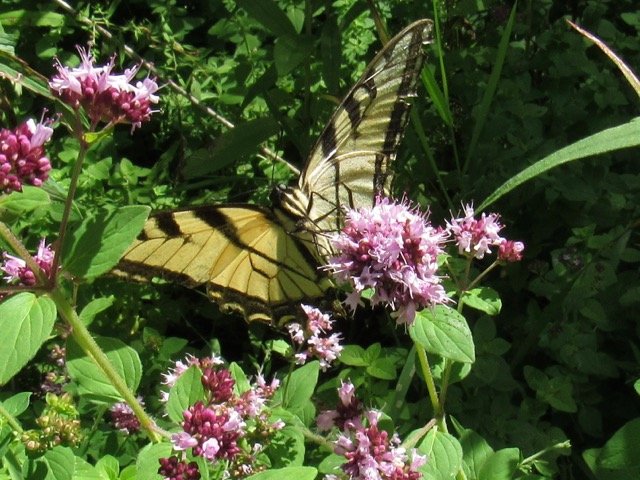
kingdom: Animalia
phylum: Arthropoda
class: Insecta
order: Lepidoptera
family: Papilionidae
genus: Pterourus
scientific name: Pterourus
